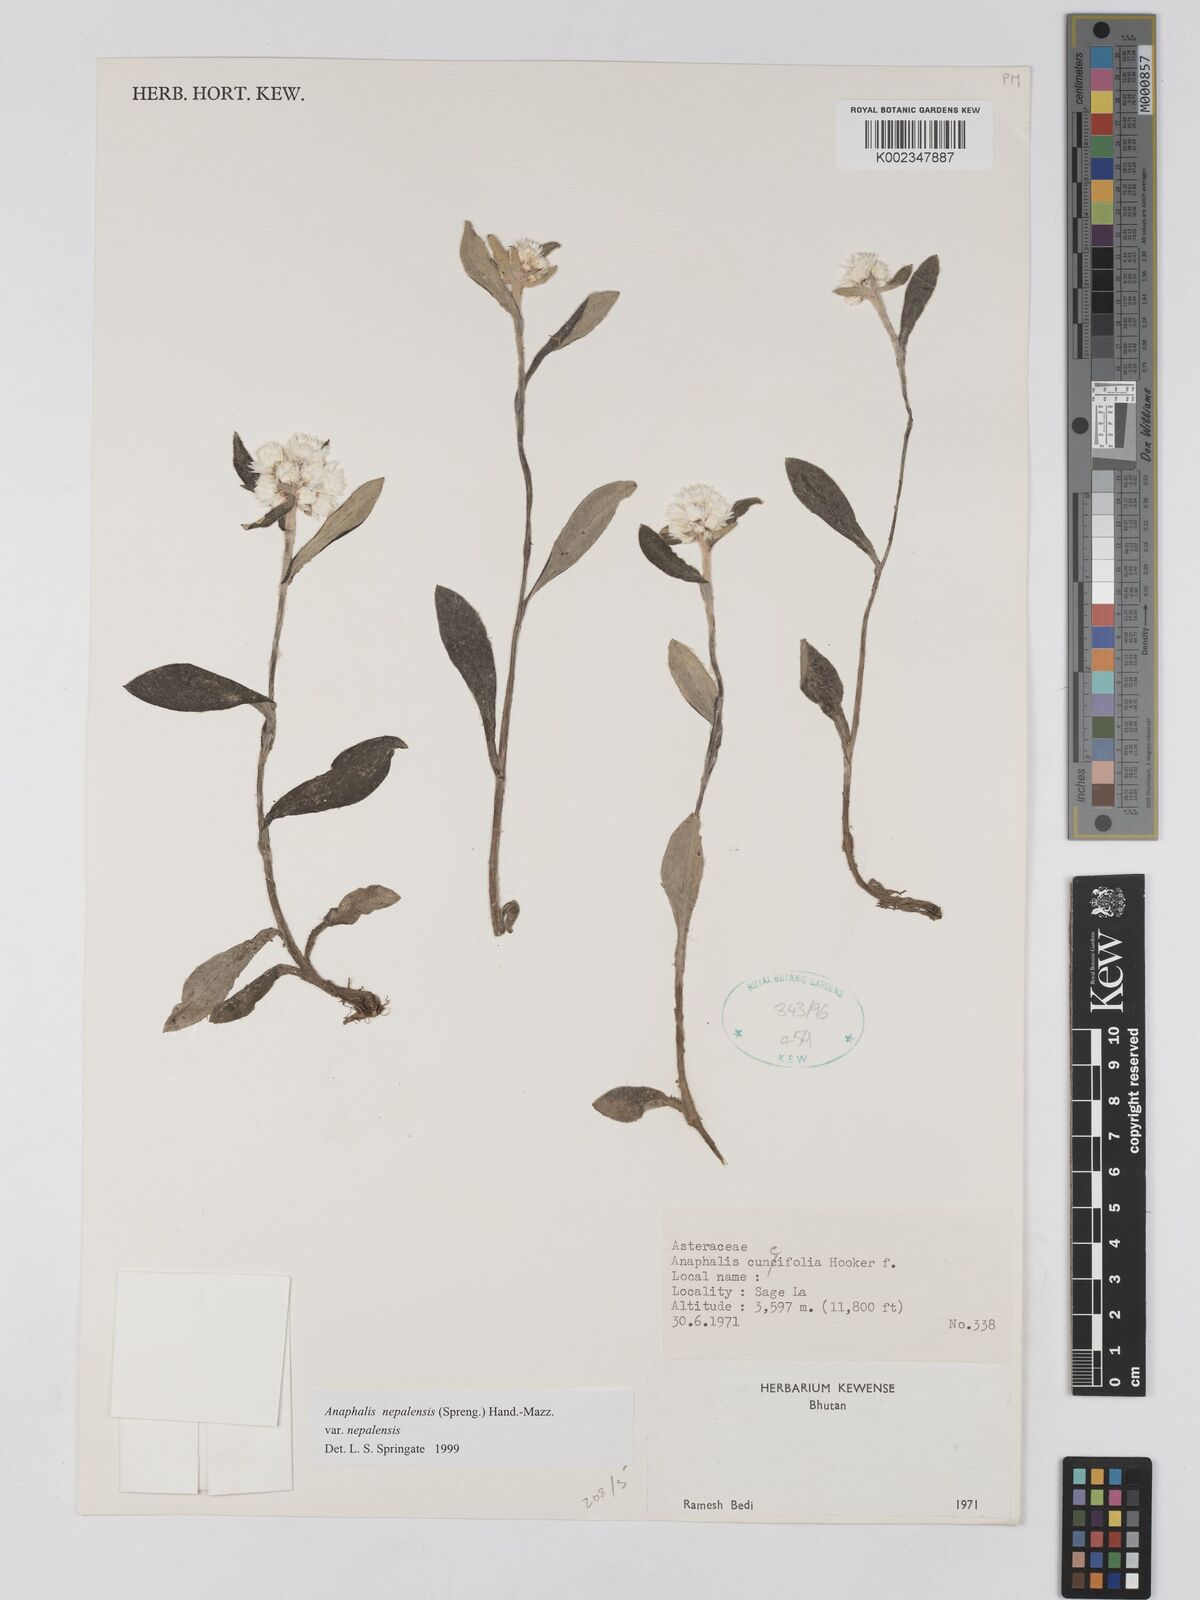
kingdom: Plantae
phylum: Tracheophyta
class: Magnoliopsida
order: Asterales
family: Asteraceae
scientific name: Asteraceae
